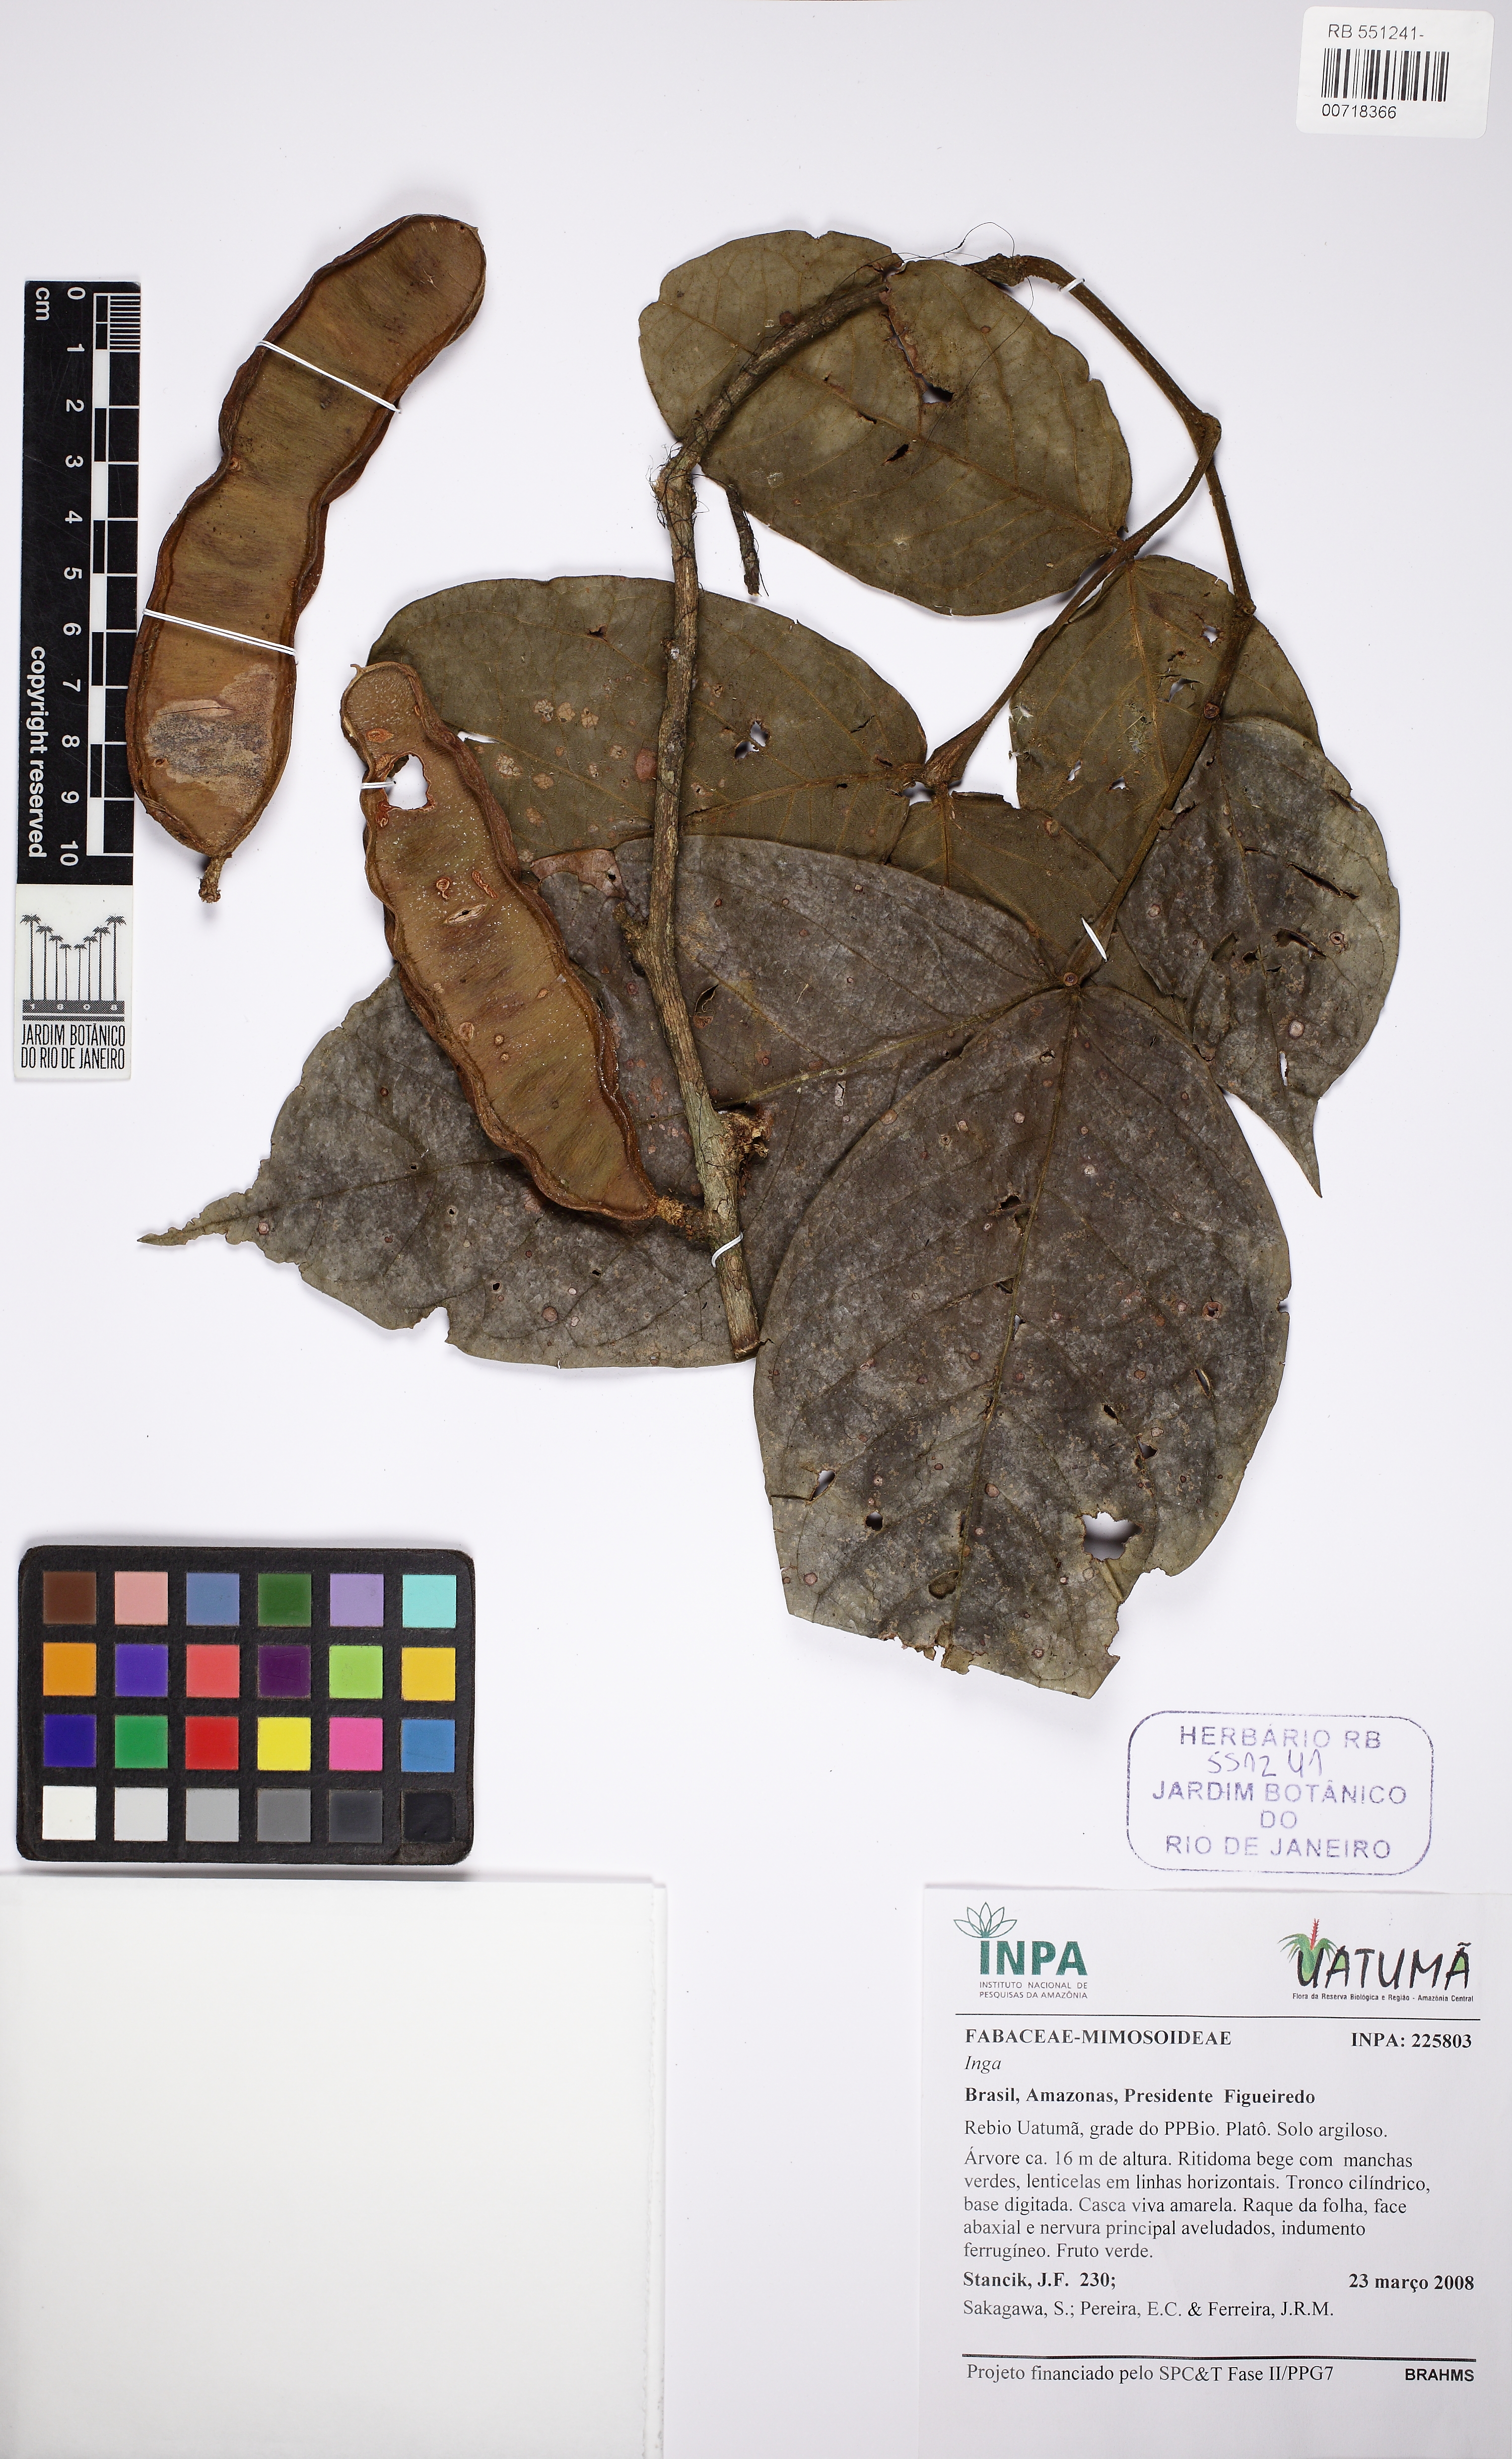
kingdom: Plantae
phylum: Tracheophyta
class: Magnoliopsida
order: Fabales
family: Fabaceae
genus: Inga
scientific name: Inga umbratica
